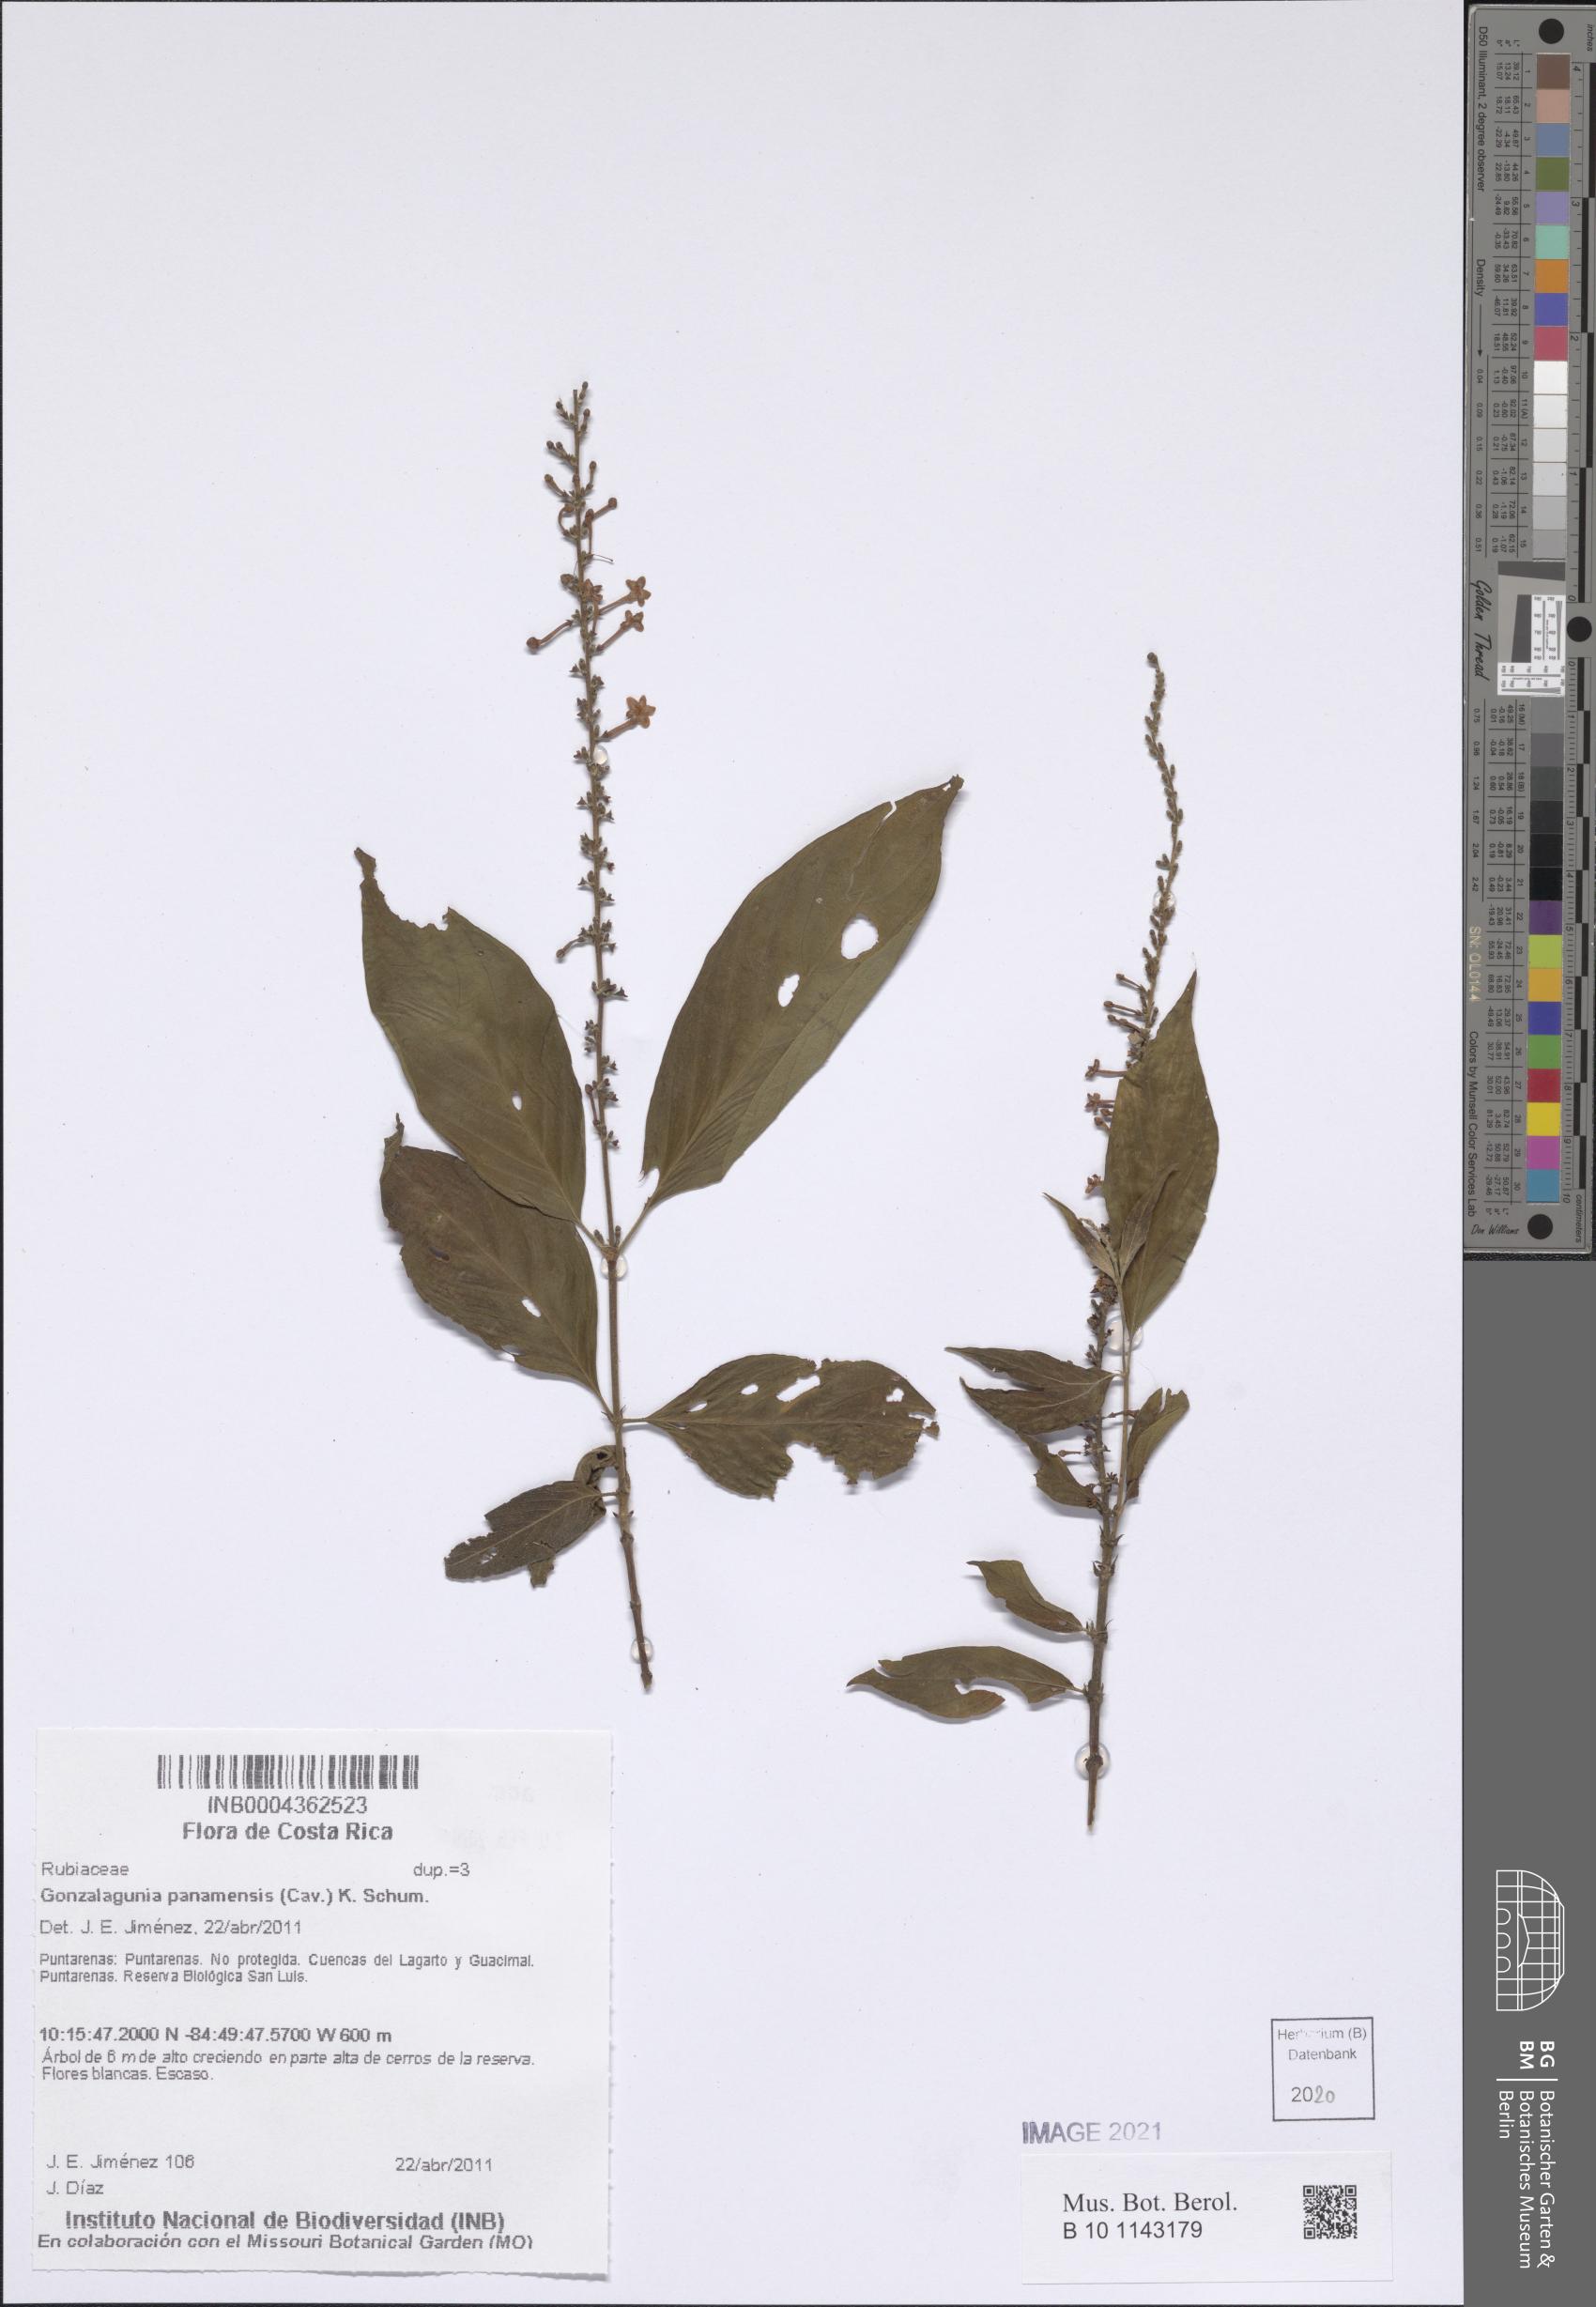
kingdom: Plantae
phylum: Tracheophyta
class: Magnoliopsida
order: Gentianales
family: Rubiaceae
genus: Gonzalagunia
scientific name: Gonzalagunia panamensis
